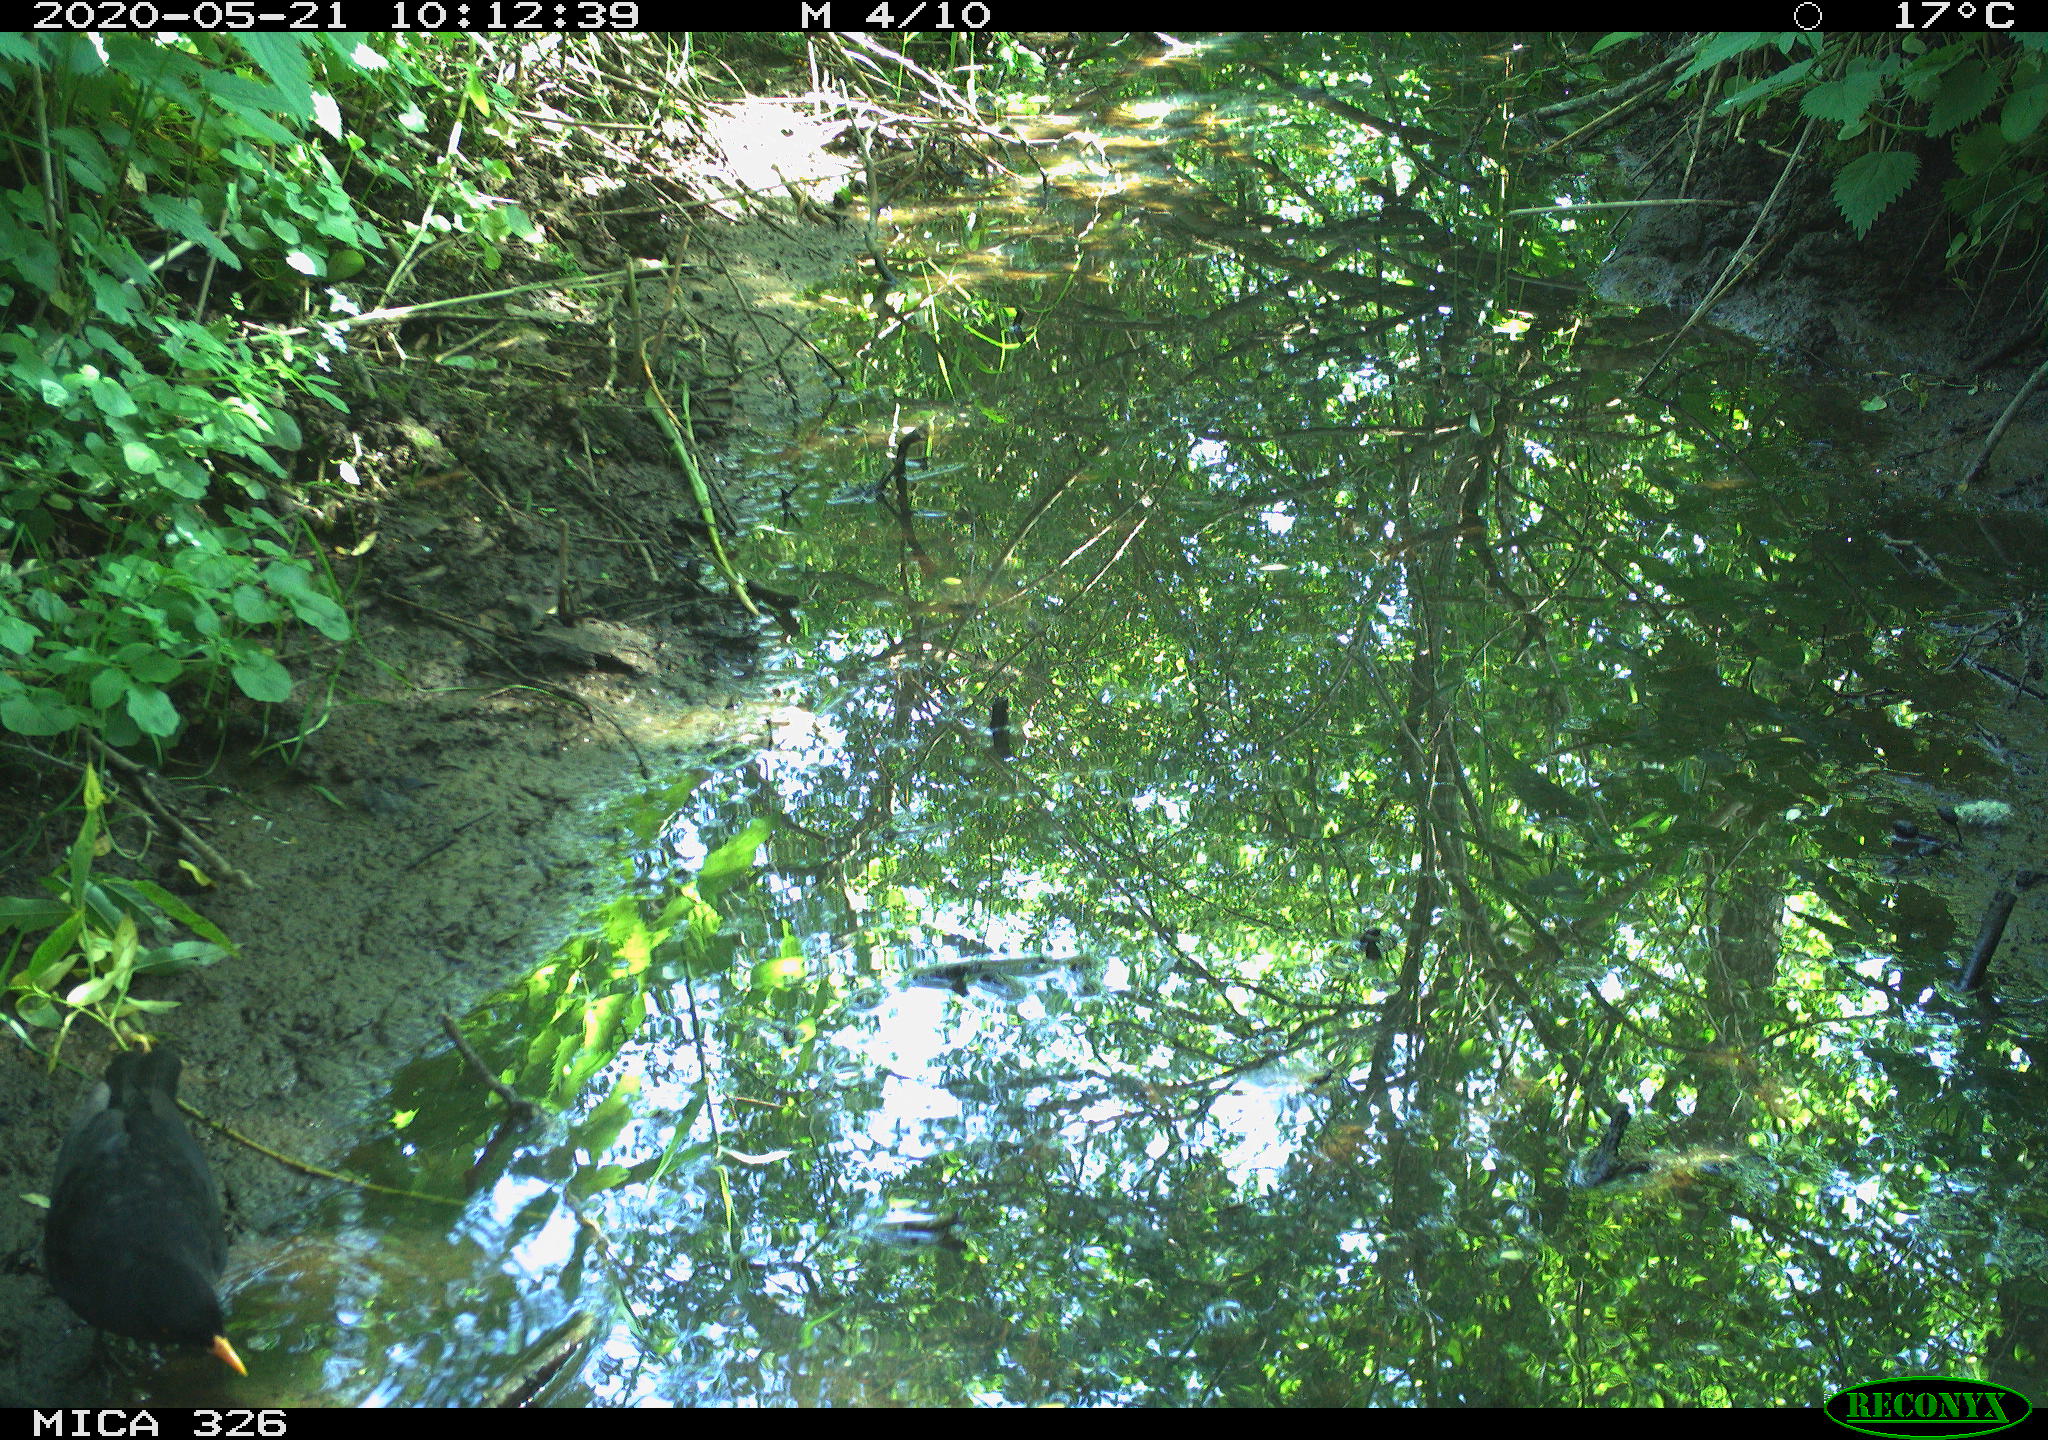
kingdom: Animalia
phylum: Chordata
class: Aves
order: Passeriformes
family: Turdidae
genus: Turdus
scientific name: Turdus merula
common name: Common blackbird
